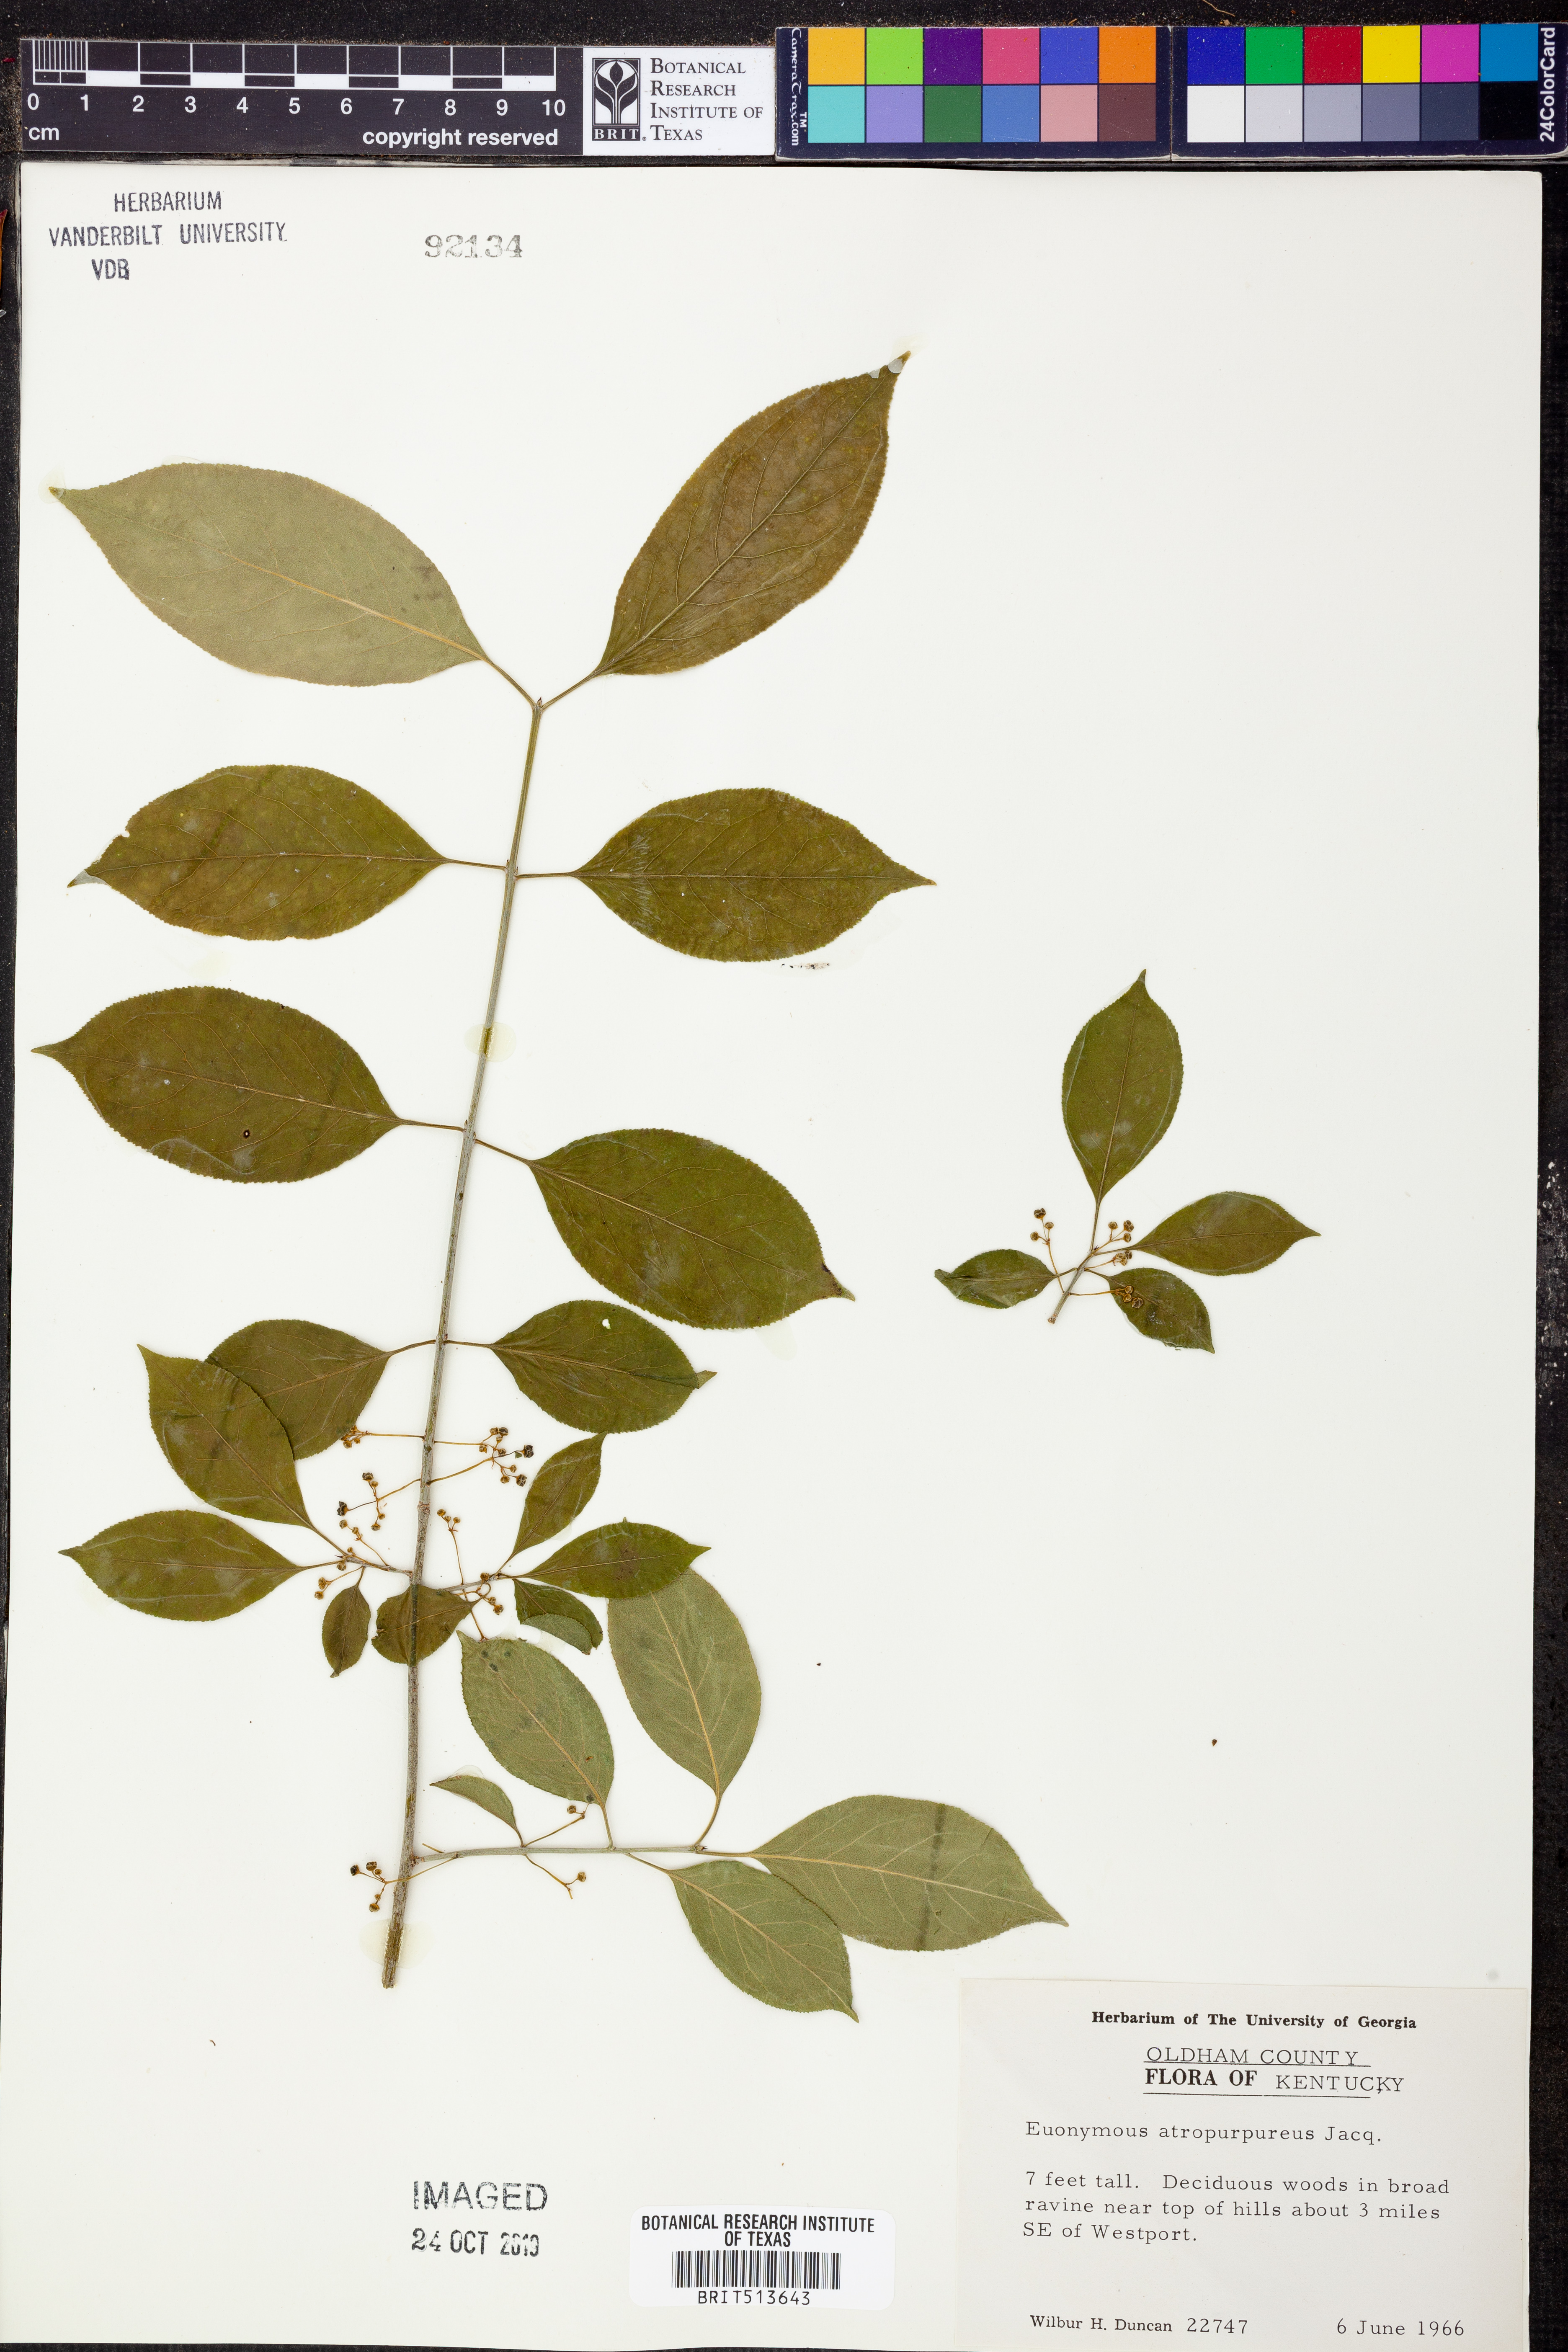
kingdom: Plantae
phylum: Tracheophyta
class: Magnoliopsida
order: Celastrales
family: Celastraceae
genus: Euonymus
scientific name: Euonymus atropurpureus
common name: Eastern wahoo
